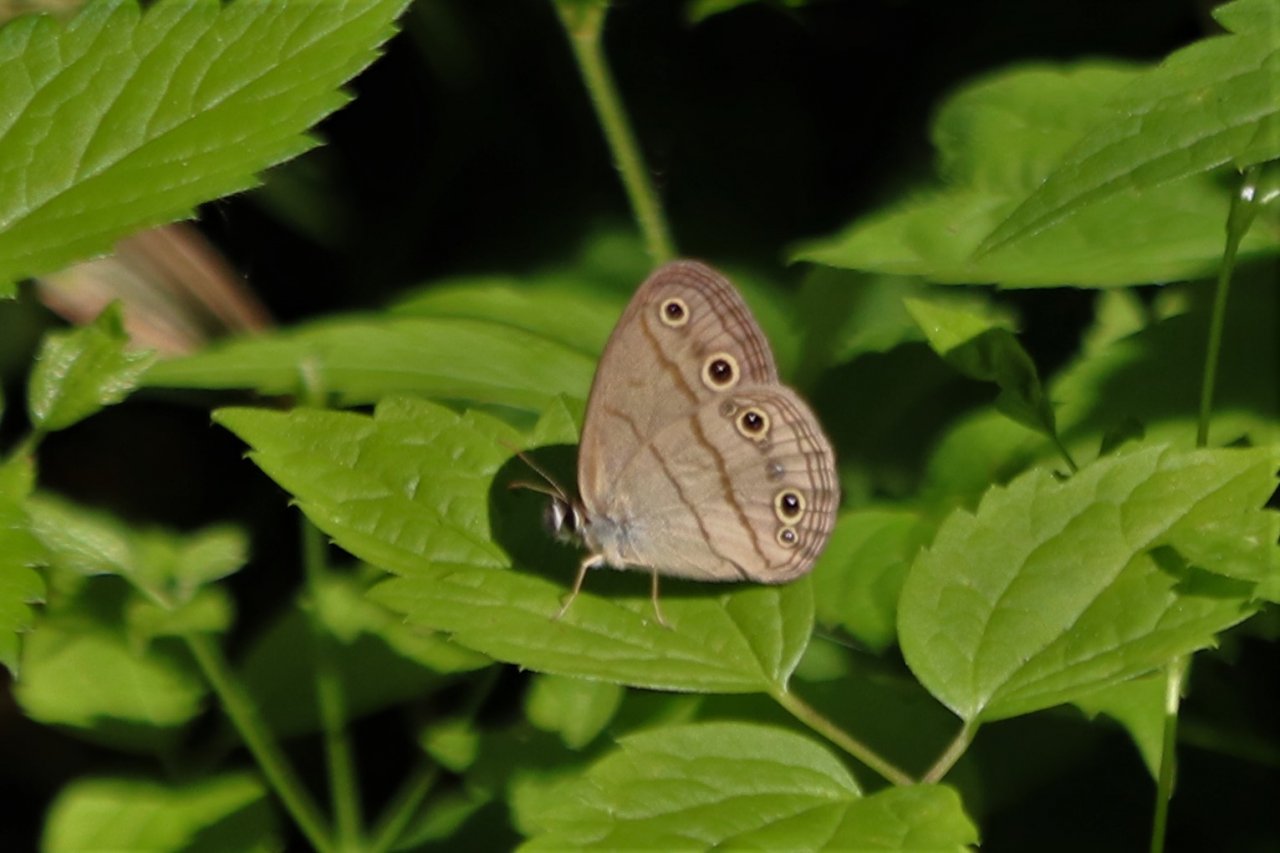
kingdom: Animalia
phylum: Arthropoda
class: Insecta
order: Lepidoptera
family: Nymphalidae
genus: Euptychia
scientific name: Euptychia cymela
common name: Little Wood Satyr
